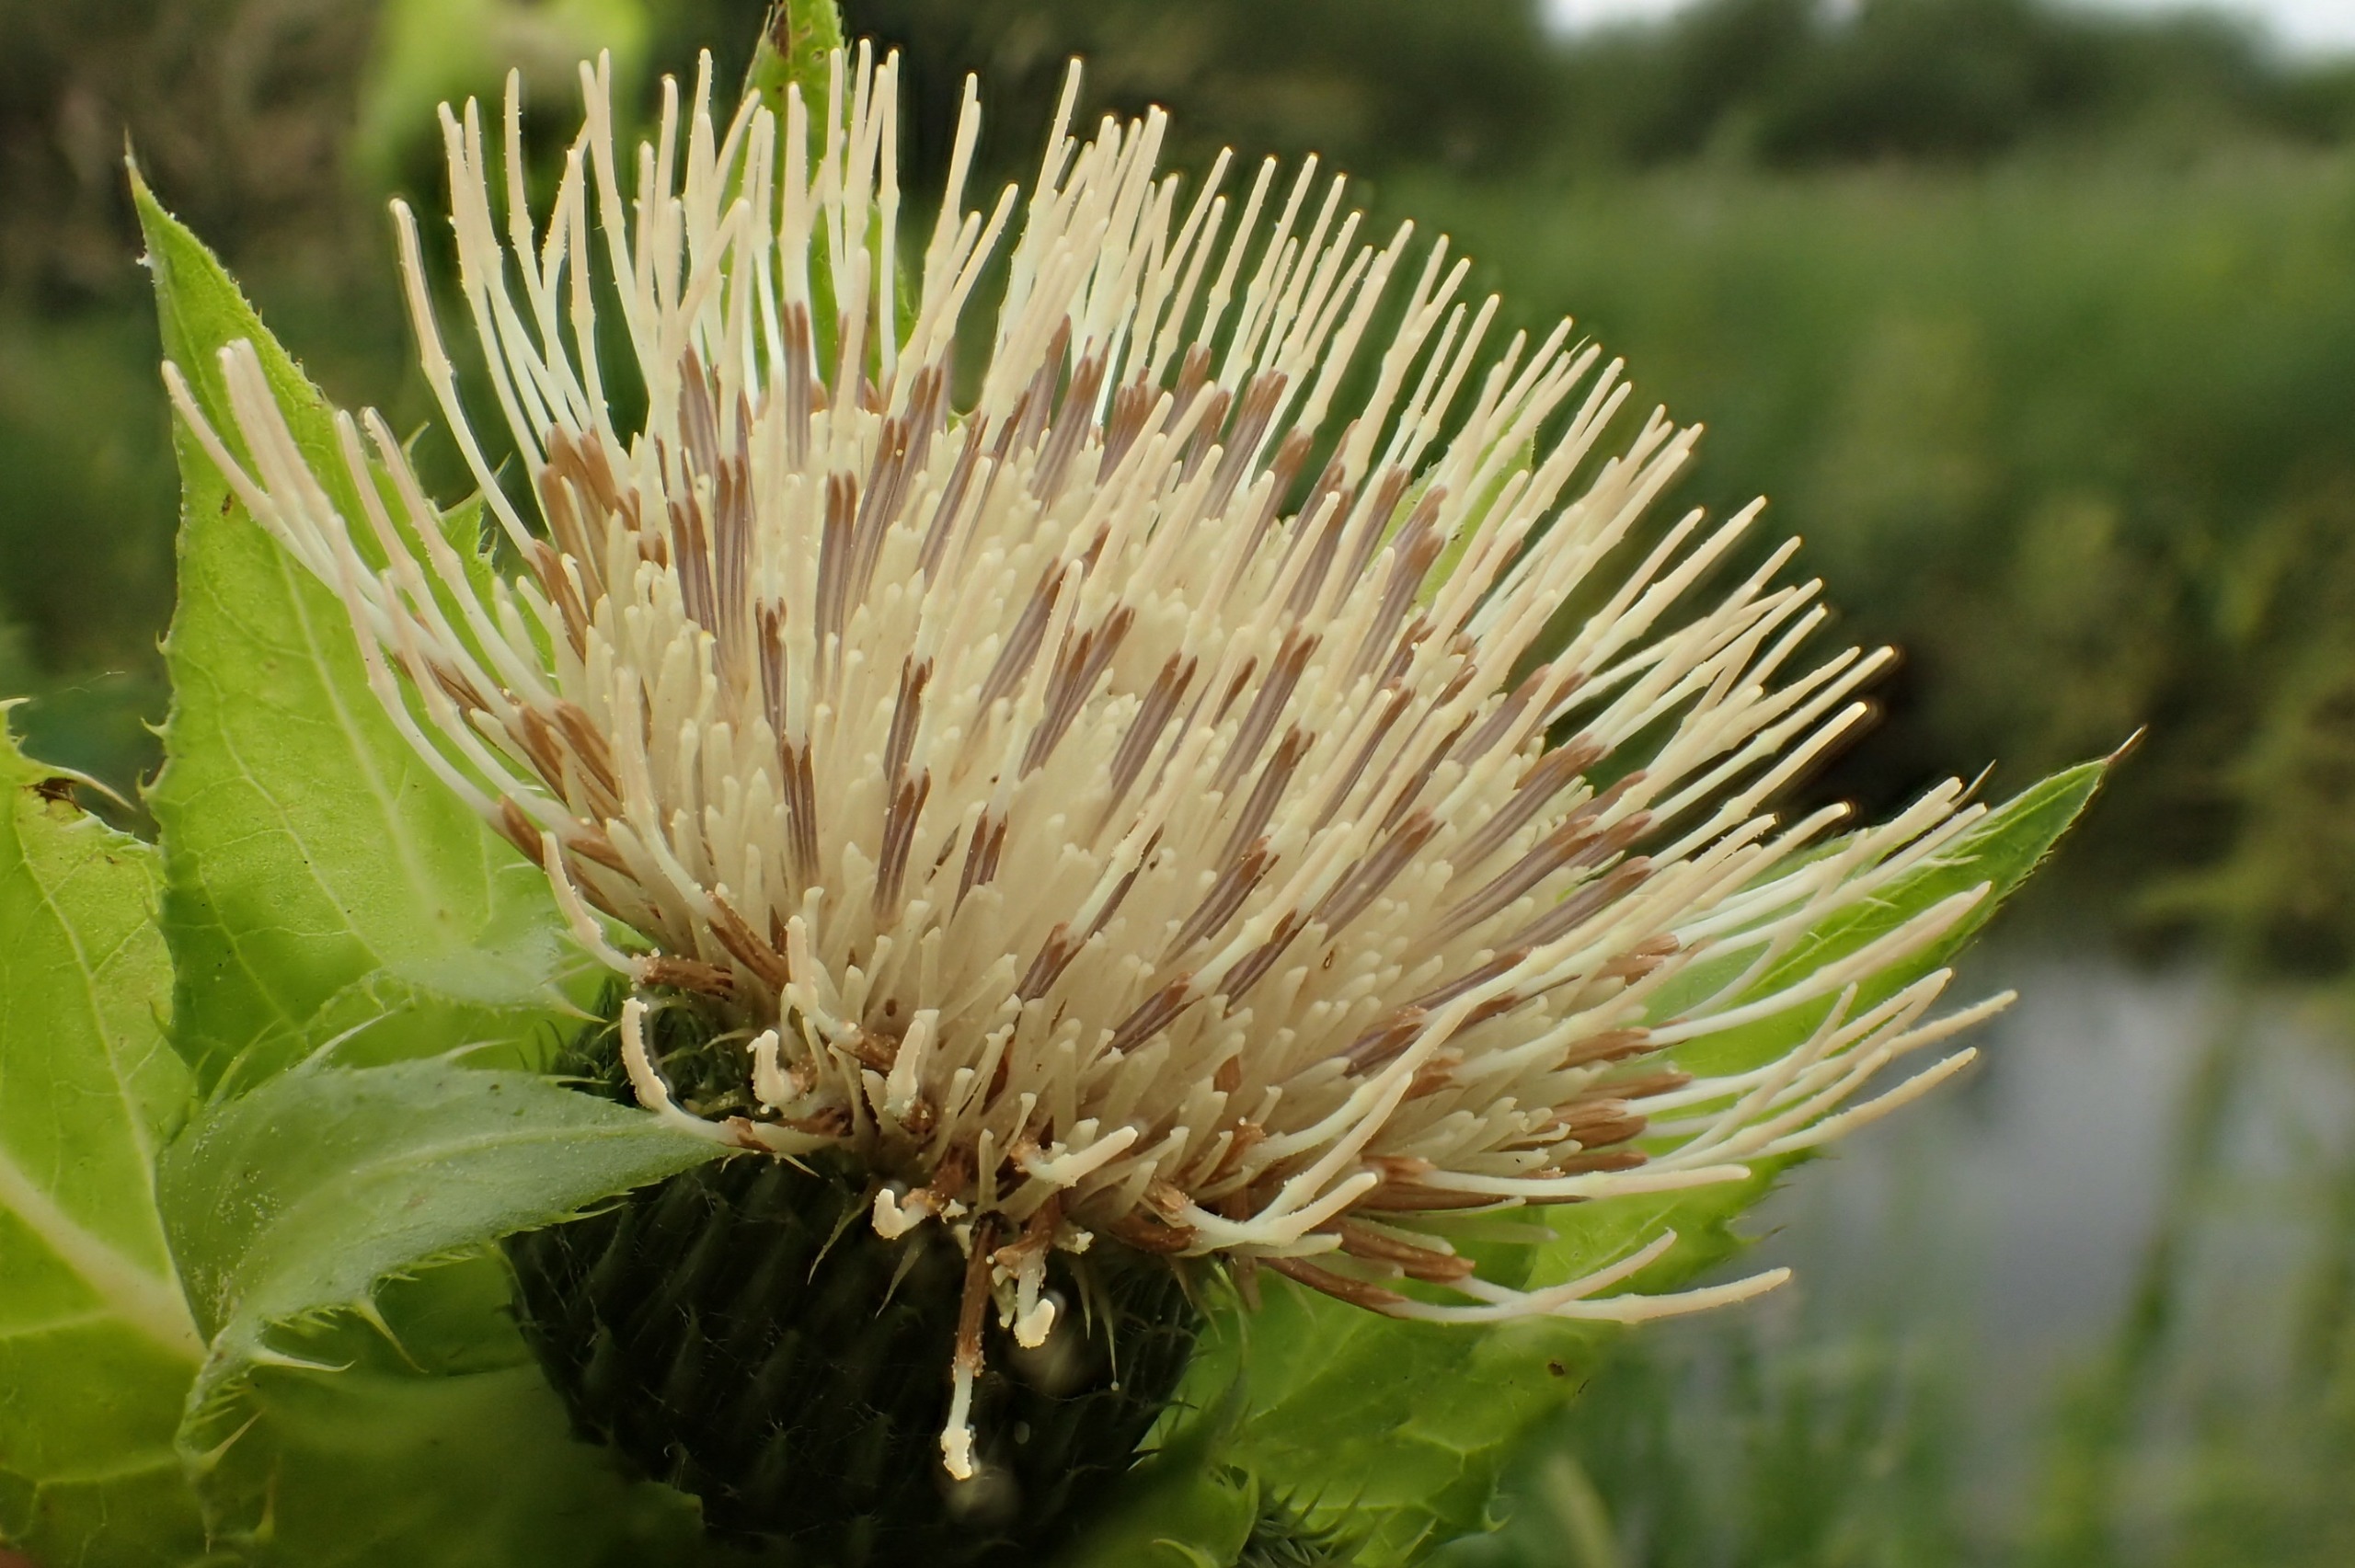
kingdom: Plantae
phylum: Tracheophyta
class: Magnoliopsida
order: Asterales
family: Asteraceae
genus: Cirsium
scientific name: Cirsium oleraceum
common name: Kål-tidsel
